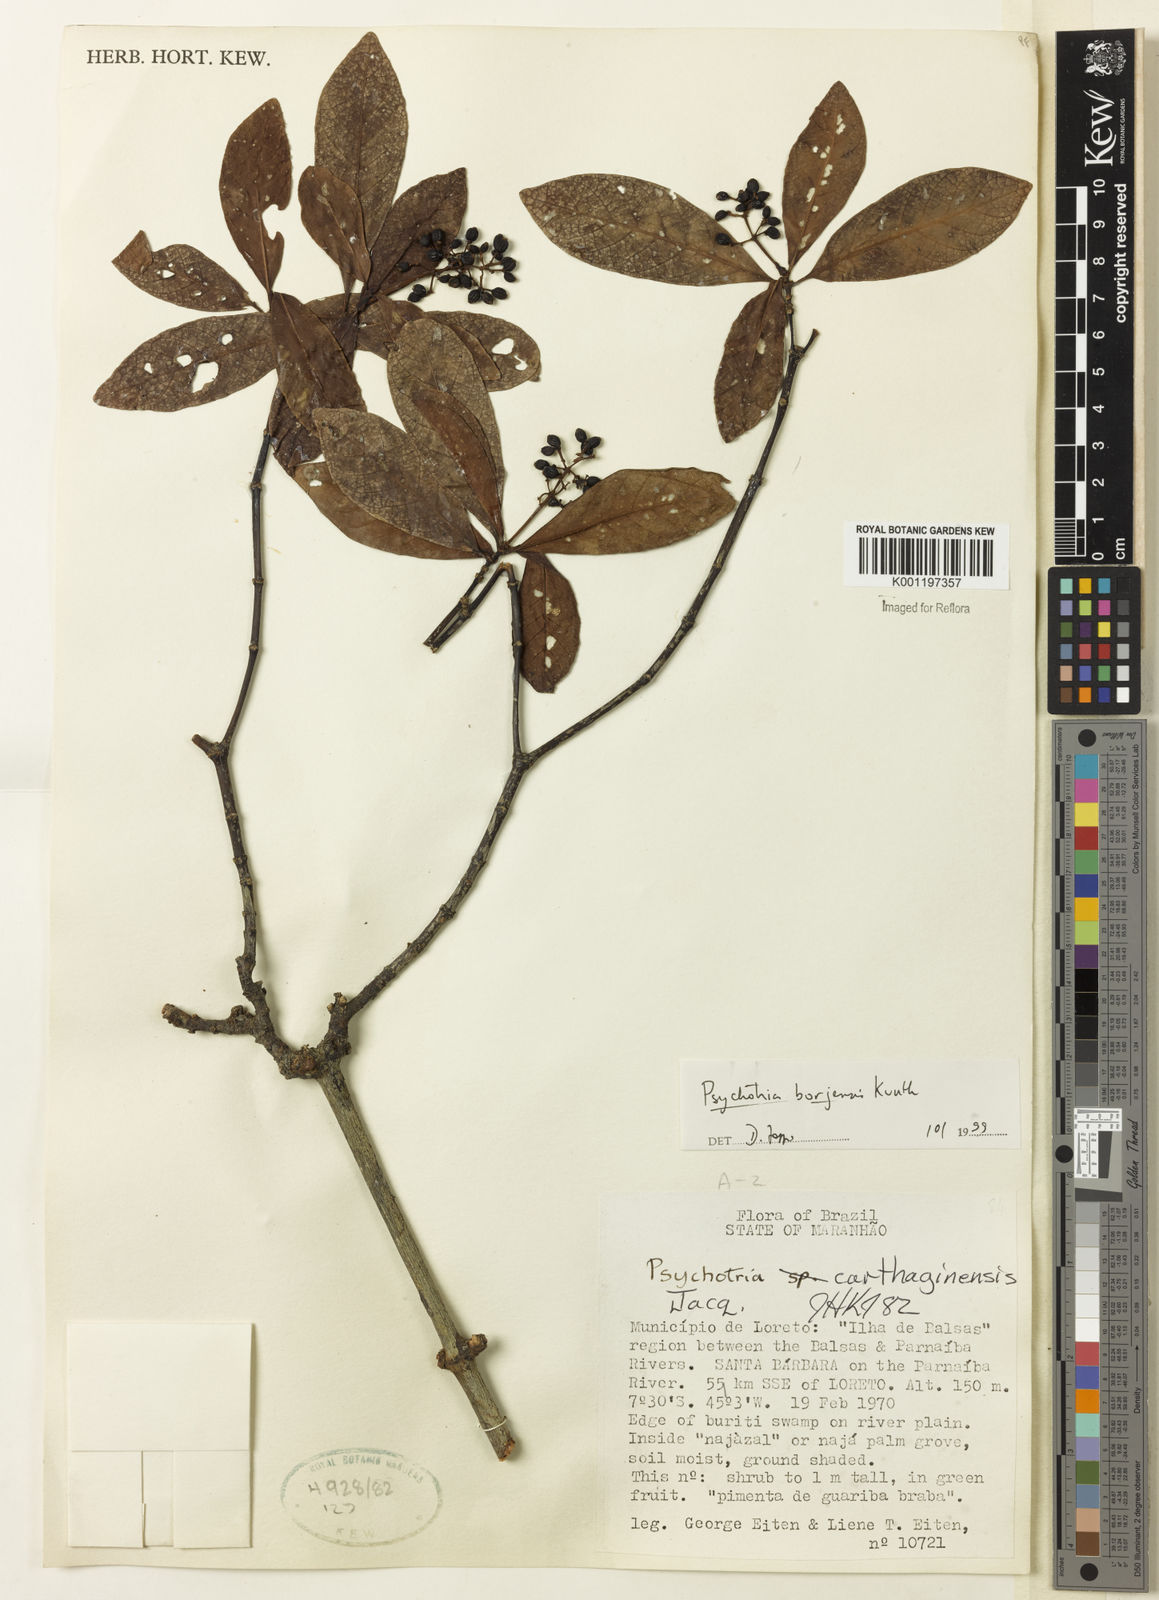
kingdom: Plantae
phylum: Tracheophyta
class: Magnoliopsida
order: Gentianales
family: Rubiaceae
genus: Psychotria
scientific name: Psychotria borjensis
